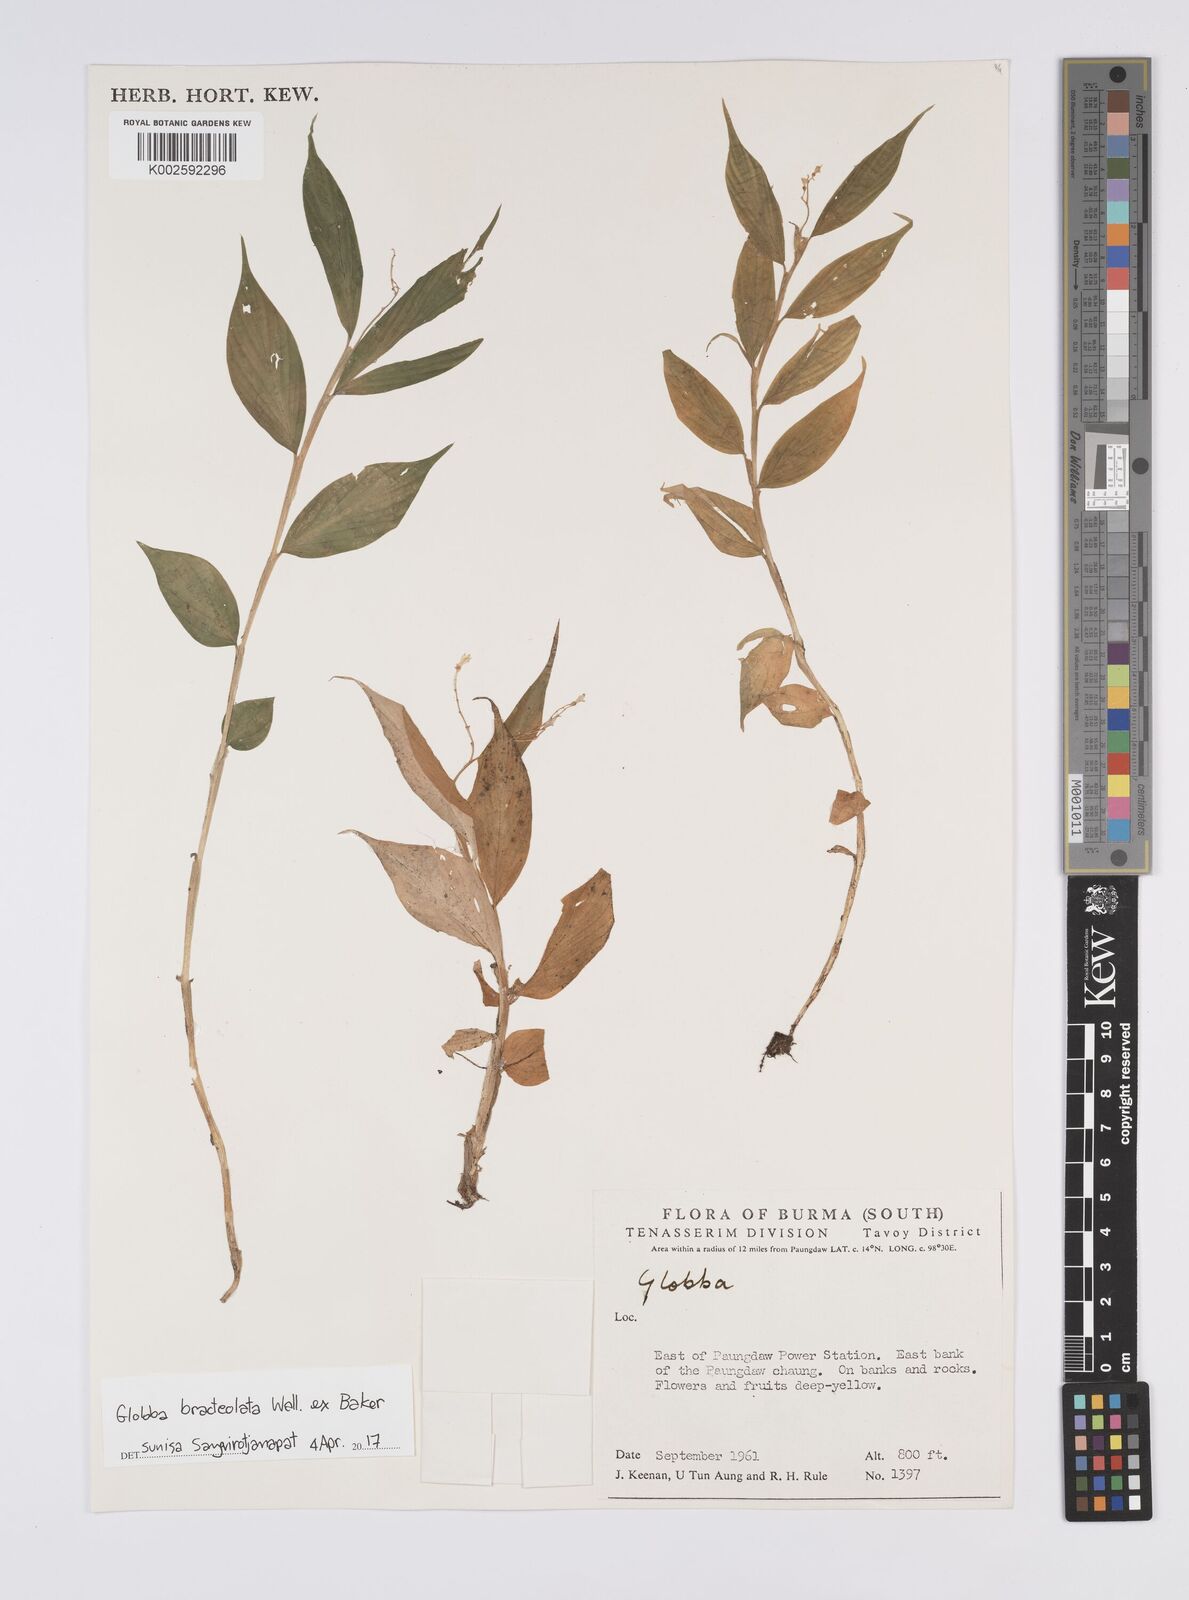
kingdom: Plantae
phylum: Tracheophyta
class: Liliopsida
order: Zingiberales
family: Zingiberaceae
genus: Globba
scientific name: Globba bracteolata
